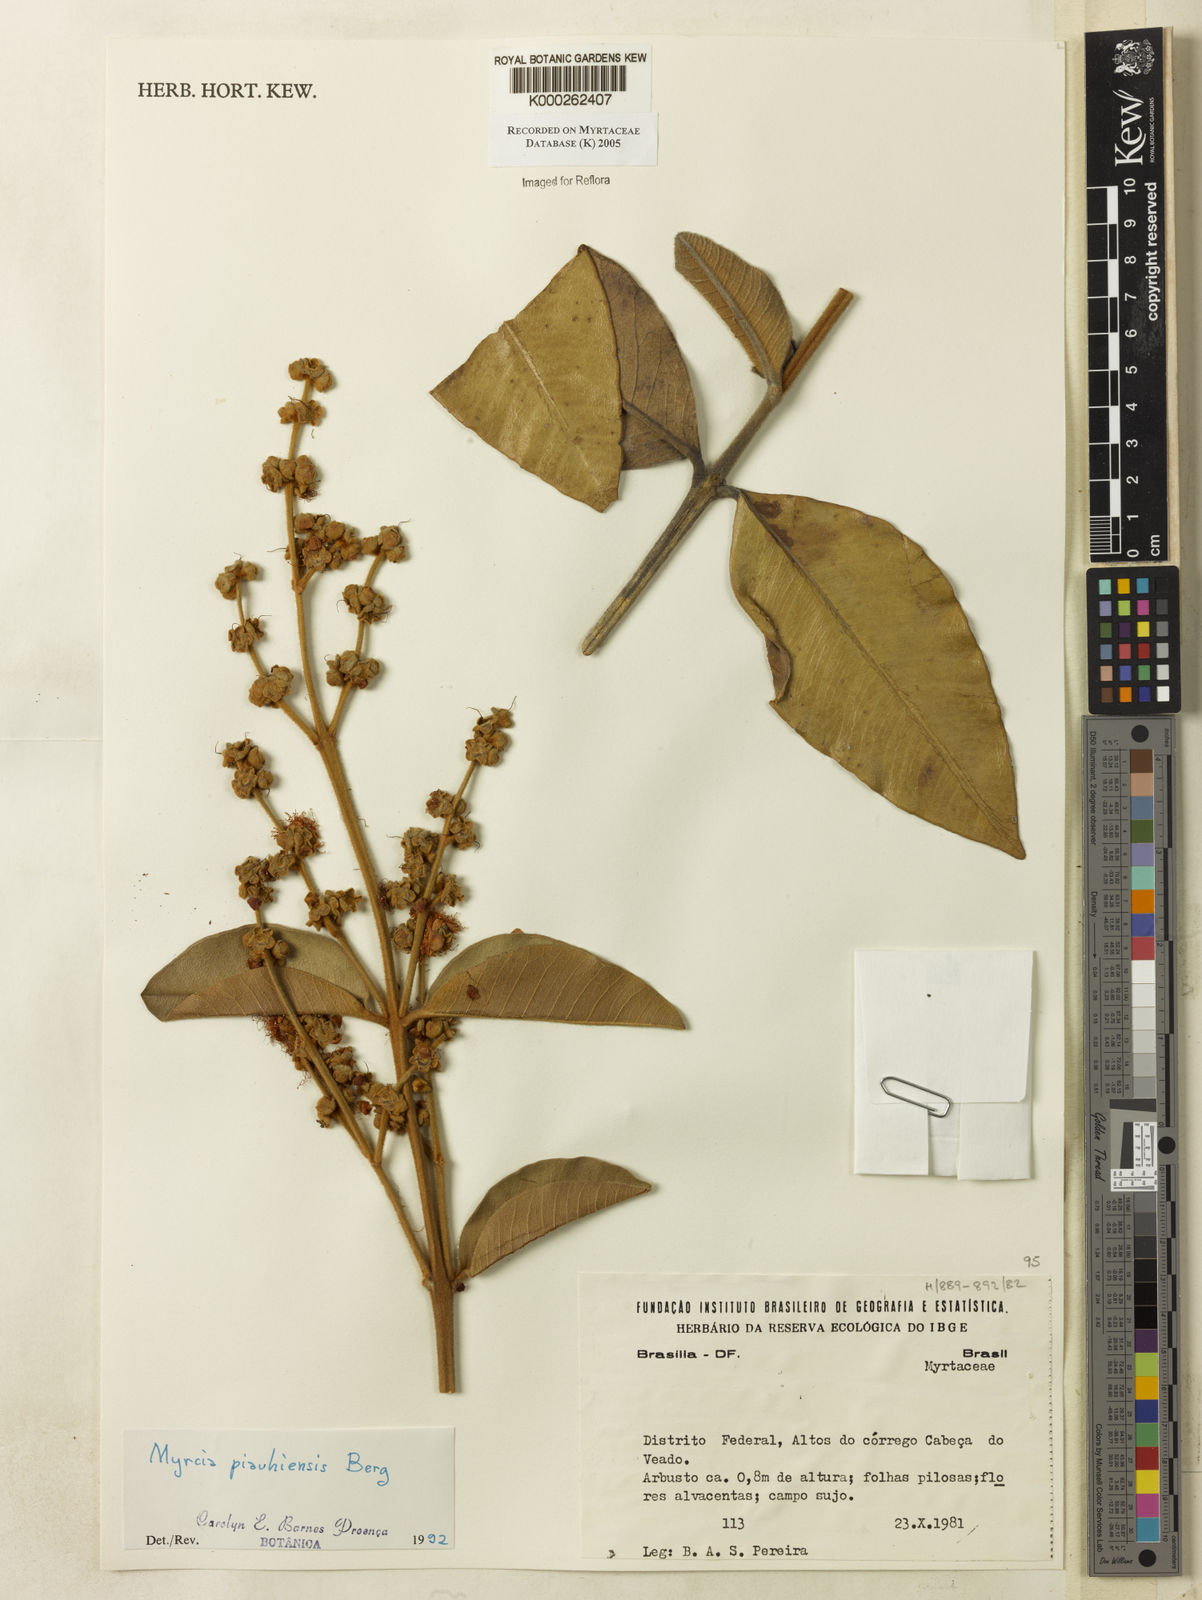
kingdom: Plantae
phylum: Tracheophyta
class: Magnoliopsida
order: Myrtales
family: Myrtaceae
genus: Myrcia
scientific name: Myrcia tomentosa
